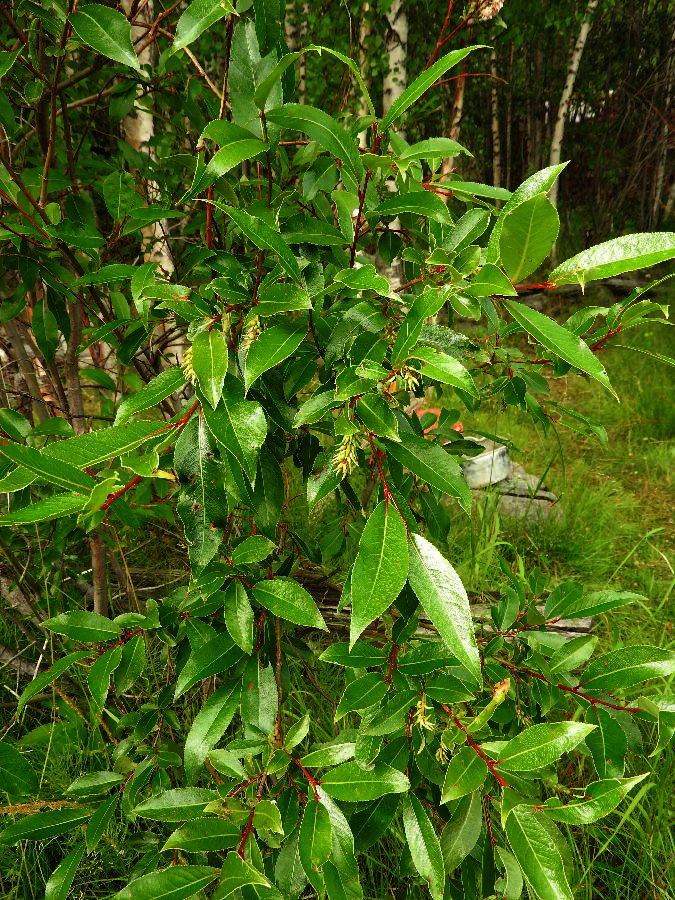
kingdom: Plantae
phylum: Tracheophyta
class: Magnoliopsida
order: Malpighiales
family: Salicaceae
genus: Salix
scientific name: Salix pentandra
